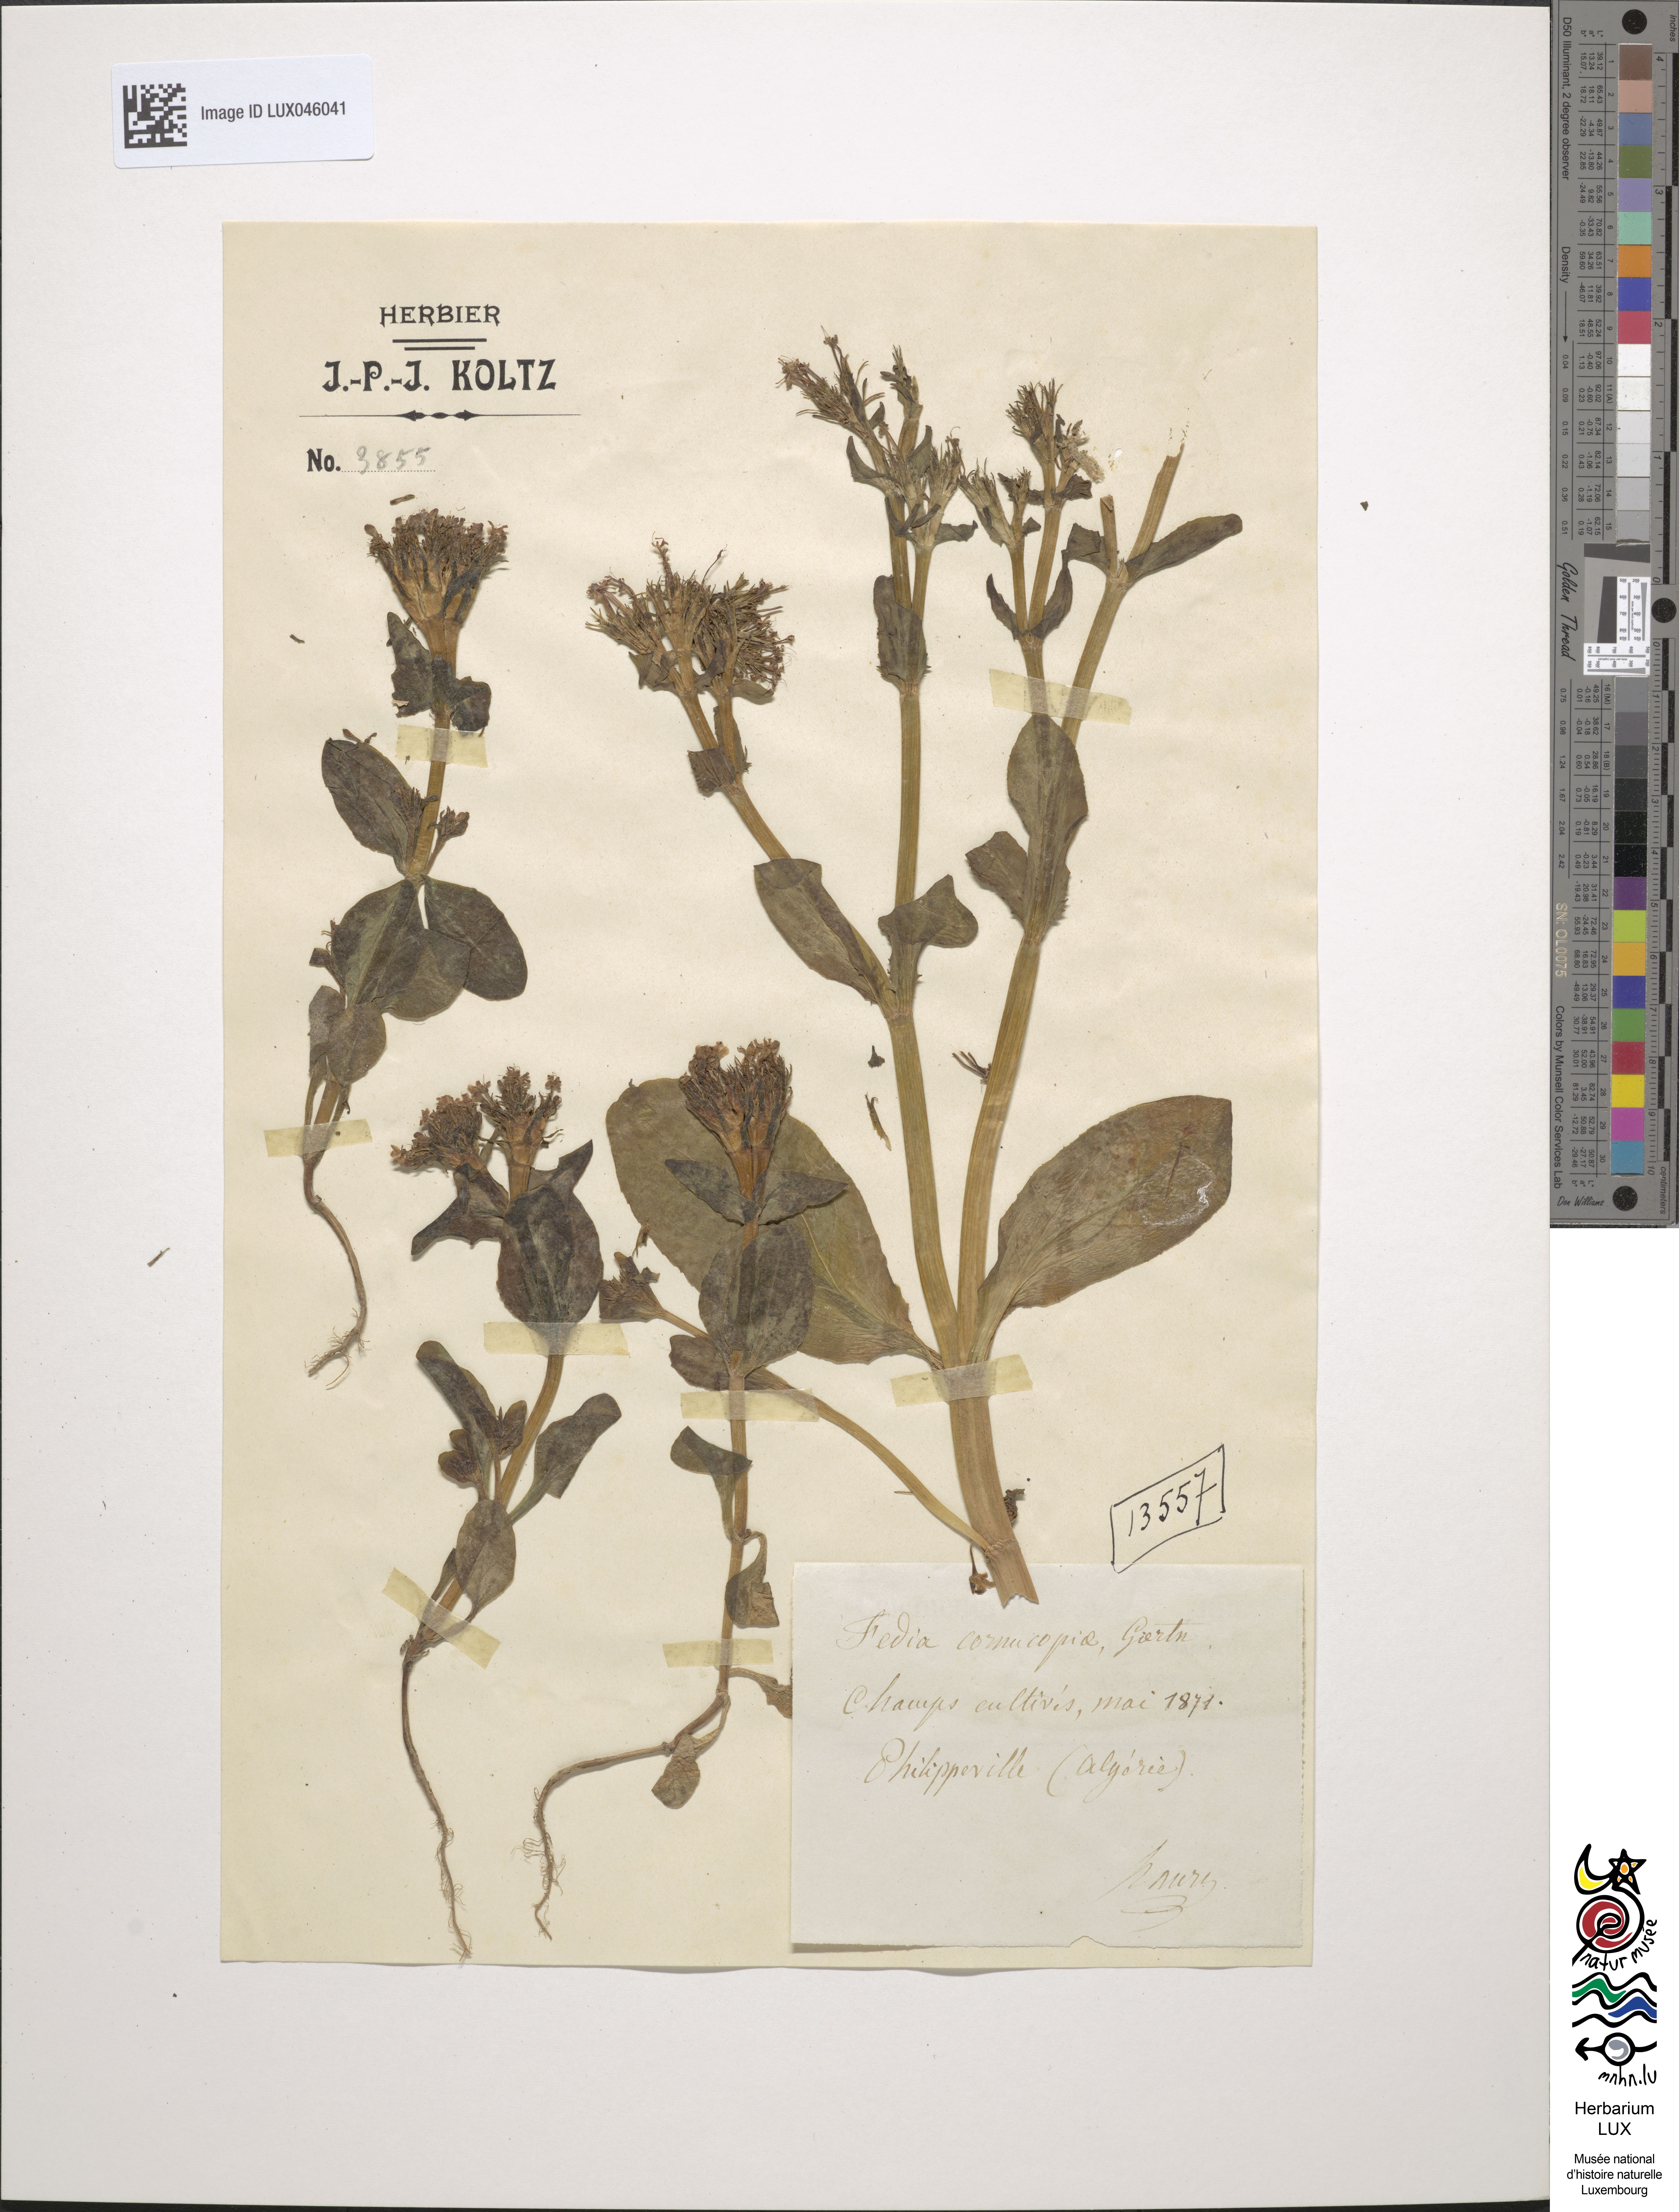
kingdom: Plantae
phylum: Tracheophyta
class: Magnoliopsida
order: Dipsacales
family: Caprifoliaceae
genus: Fedia
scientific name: Fedia cornucopiae
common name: Horn-of-plenty
